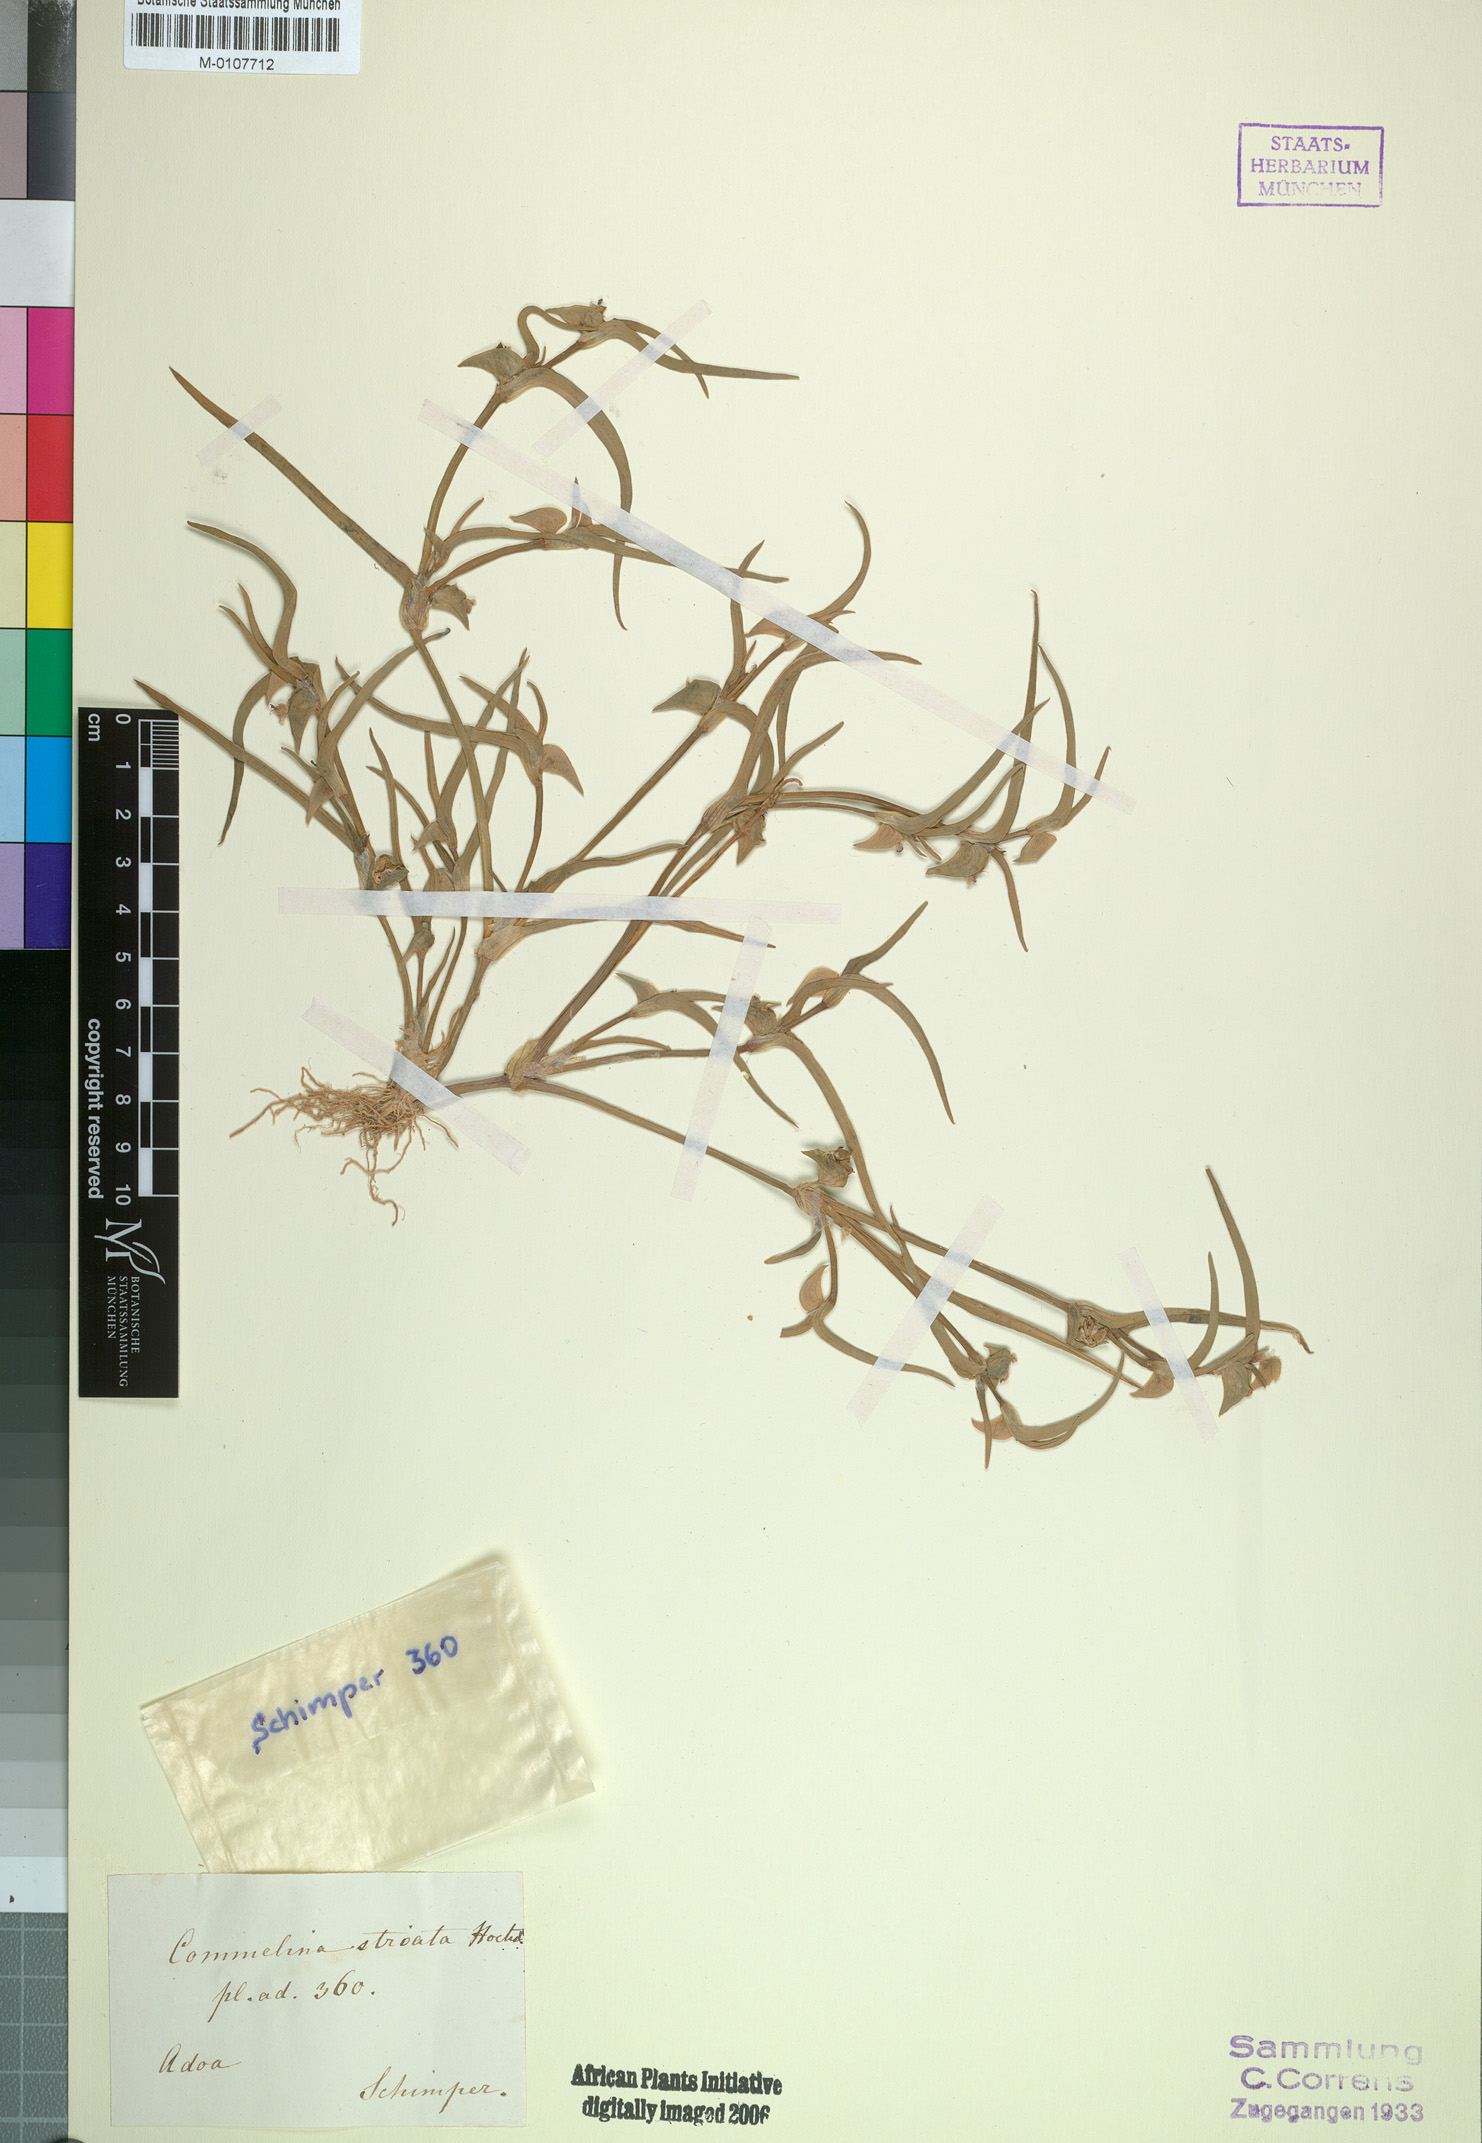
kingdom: Plantae
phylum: Tracheophyta
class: Liliopsida
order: Commelinales
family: Commelinaceae
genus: Commelina
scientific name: Commelina subulata
